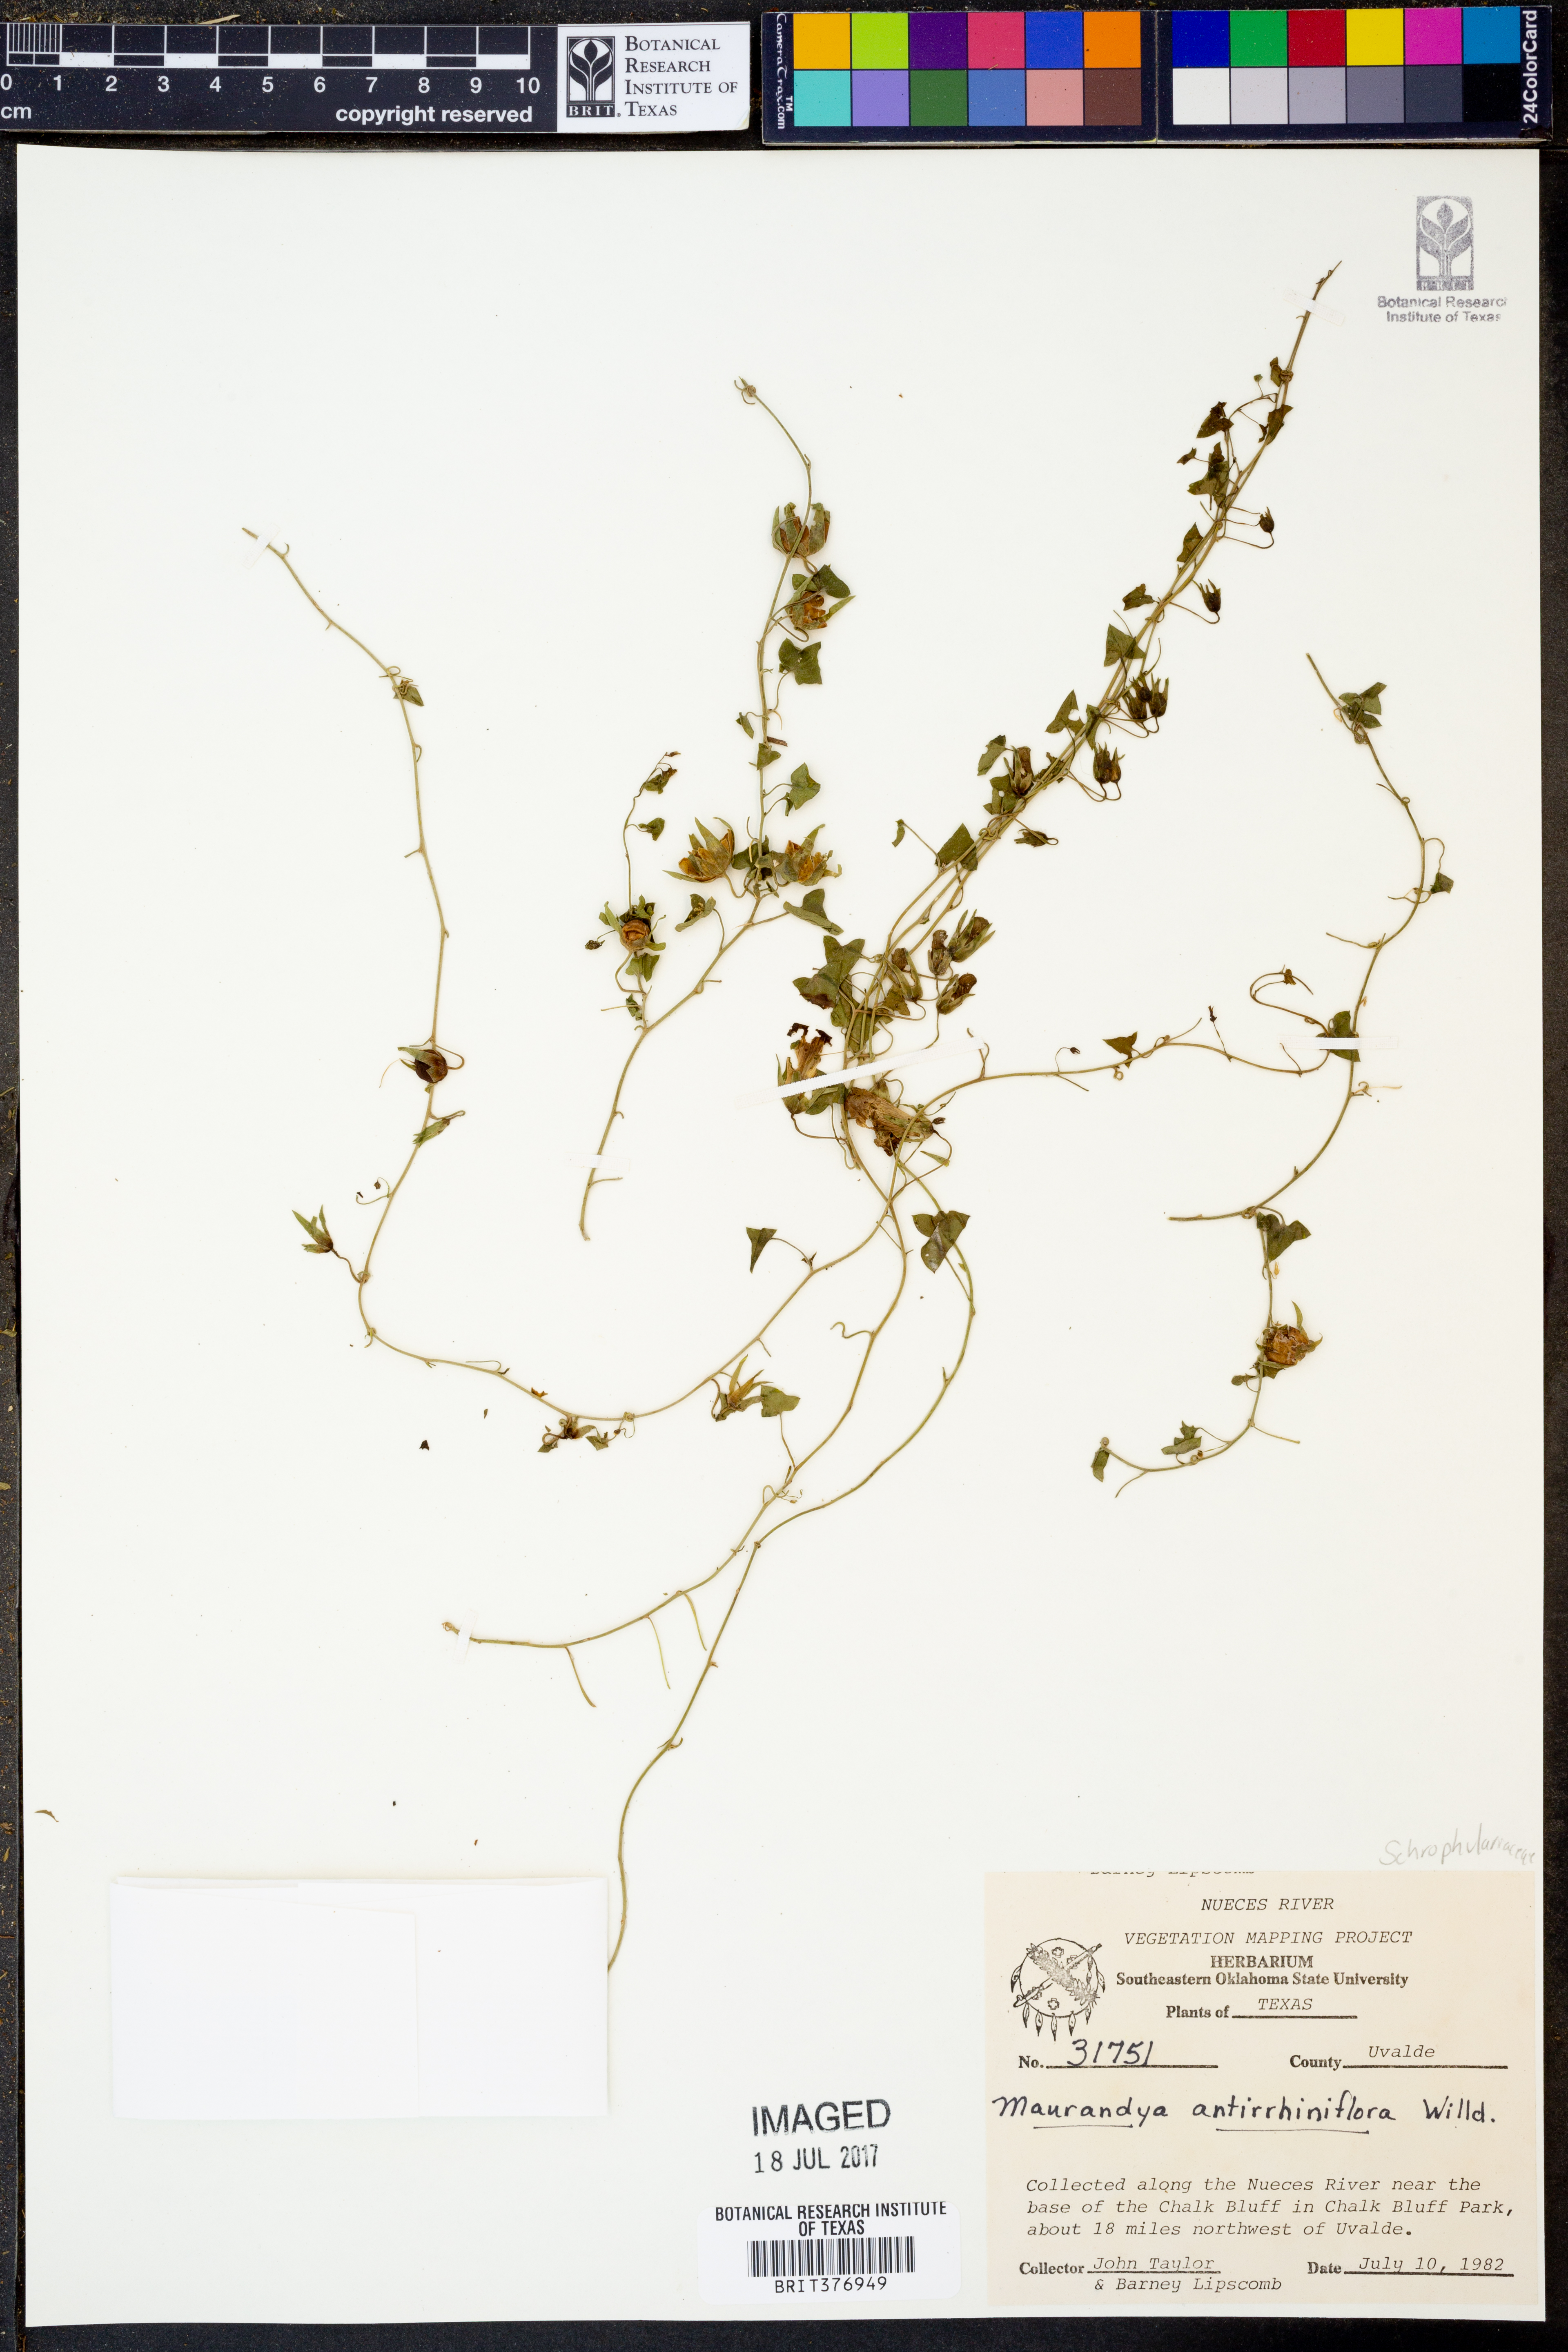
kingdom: Plantae
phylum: Tracheophyta
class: Magnoliopsida
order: Lamiales
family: Plantaginaceae
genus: Maurandella
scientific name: Maurandella antirrhiniflora
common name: Violet twining-snapdragon
